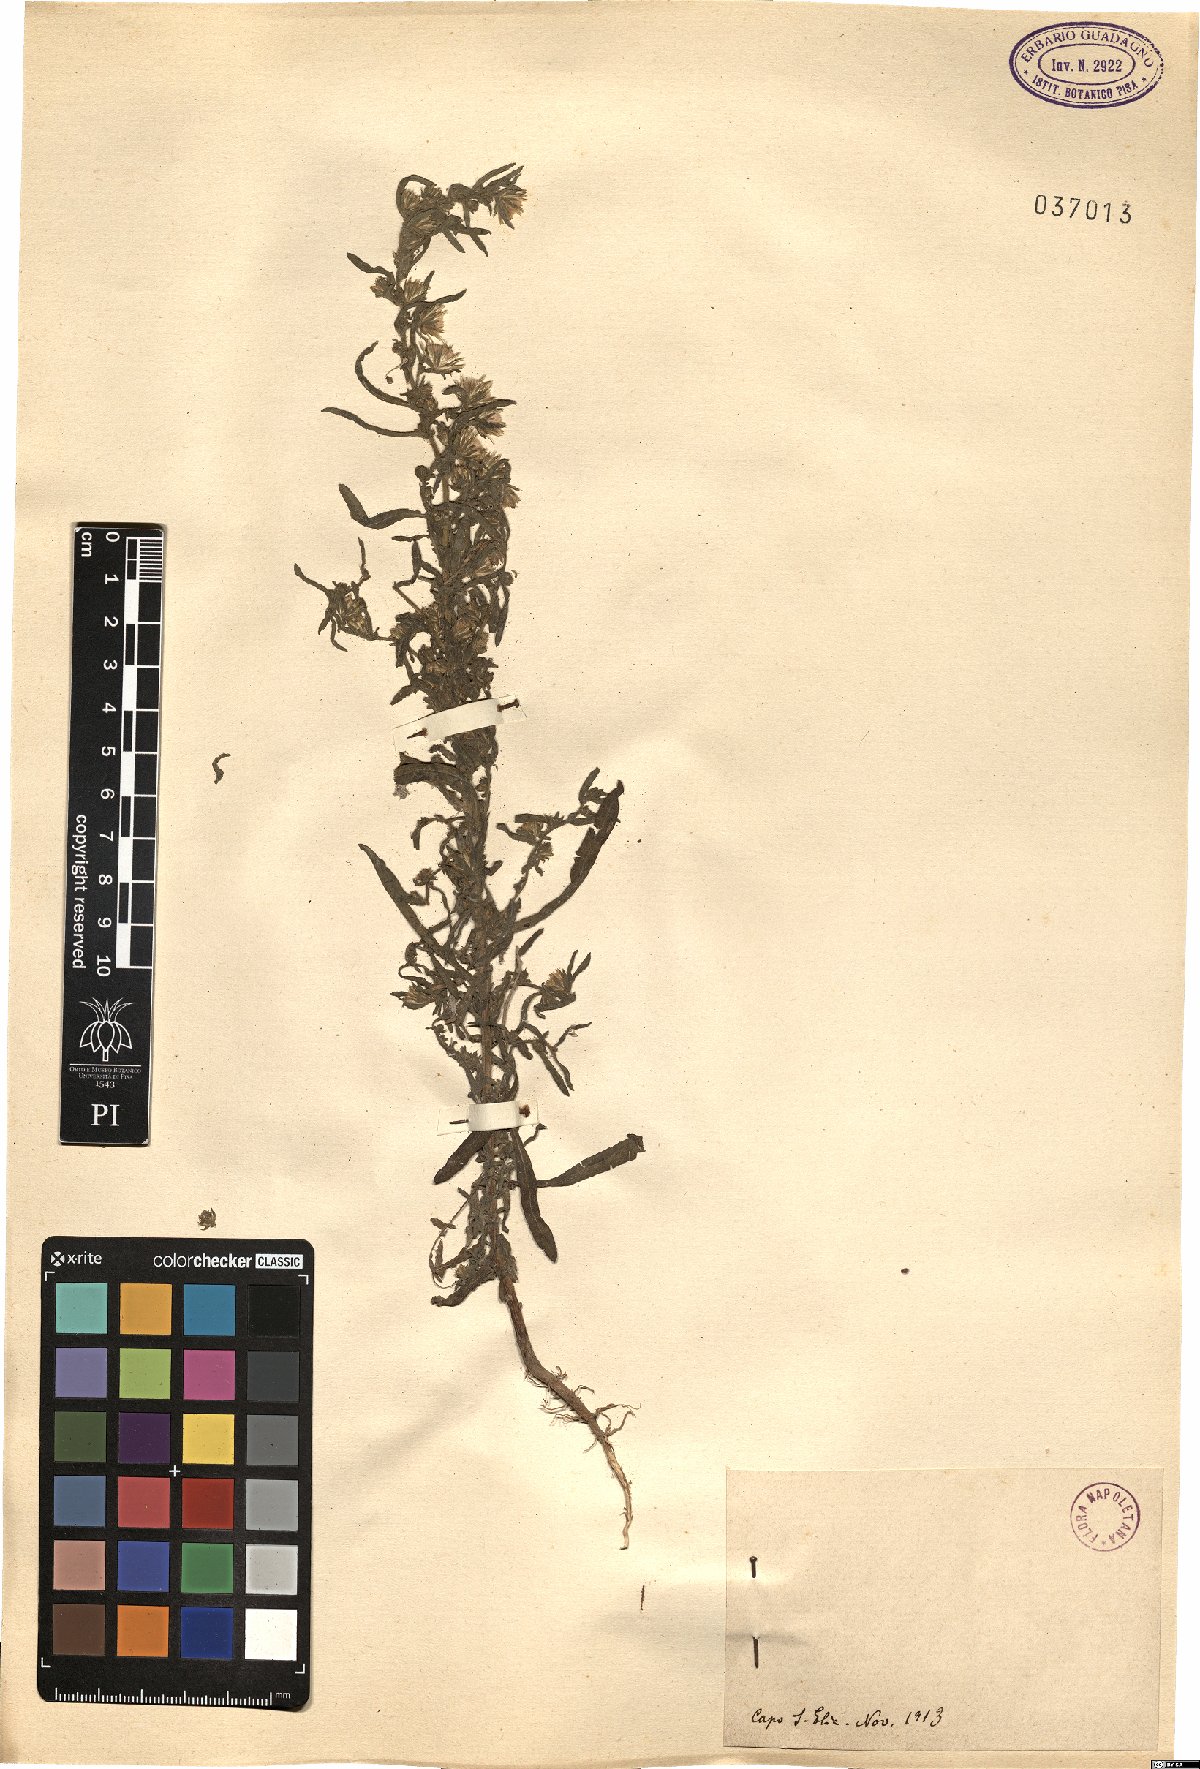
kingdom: Plantae
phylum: Tracheophyta
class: Magnoliopsida
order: Asterales
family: Asteraceae
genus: Pulicaria
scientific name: Pulicaria
